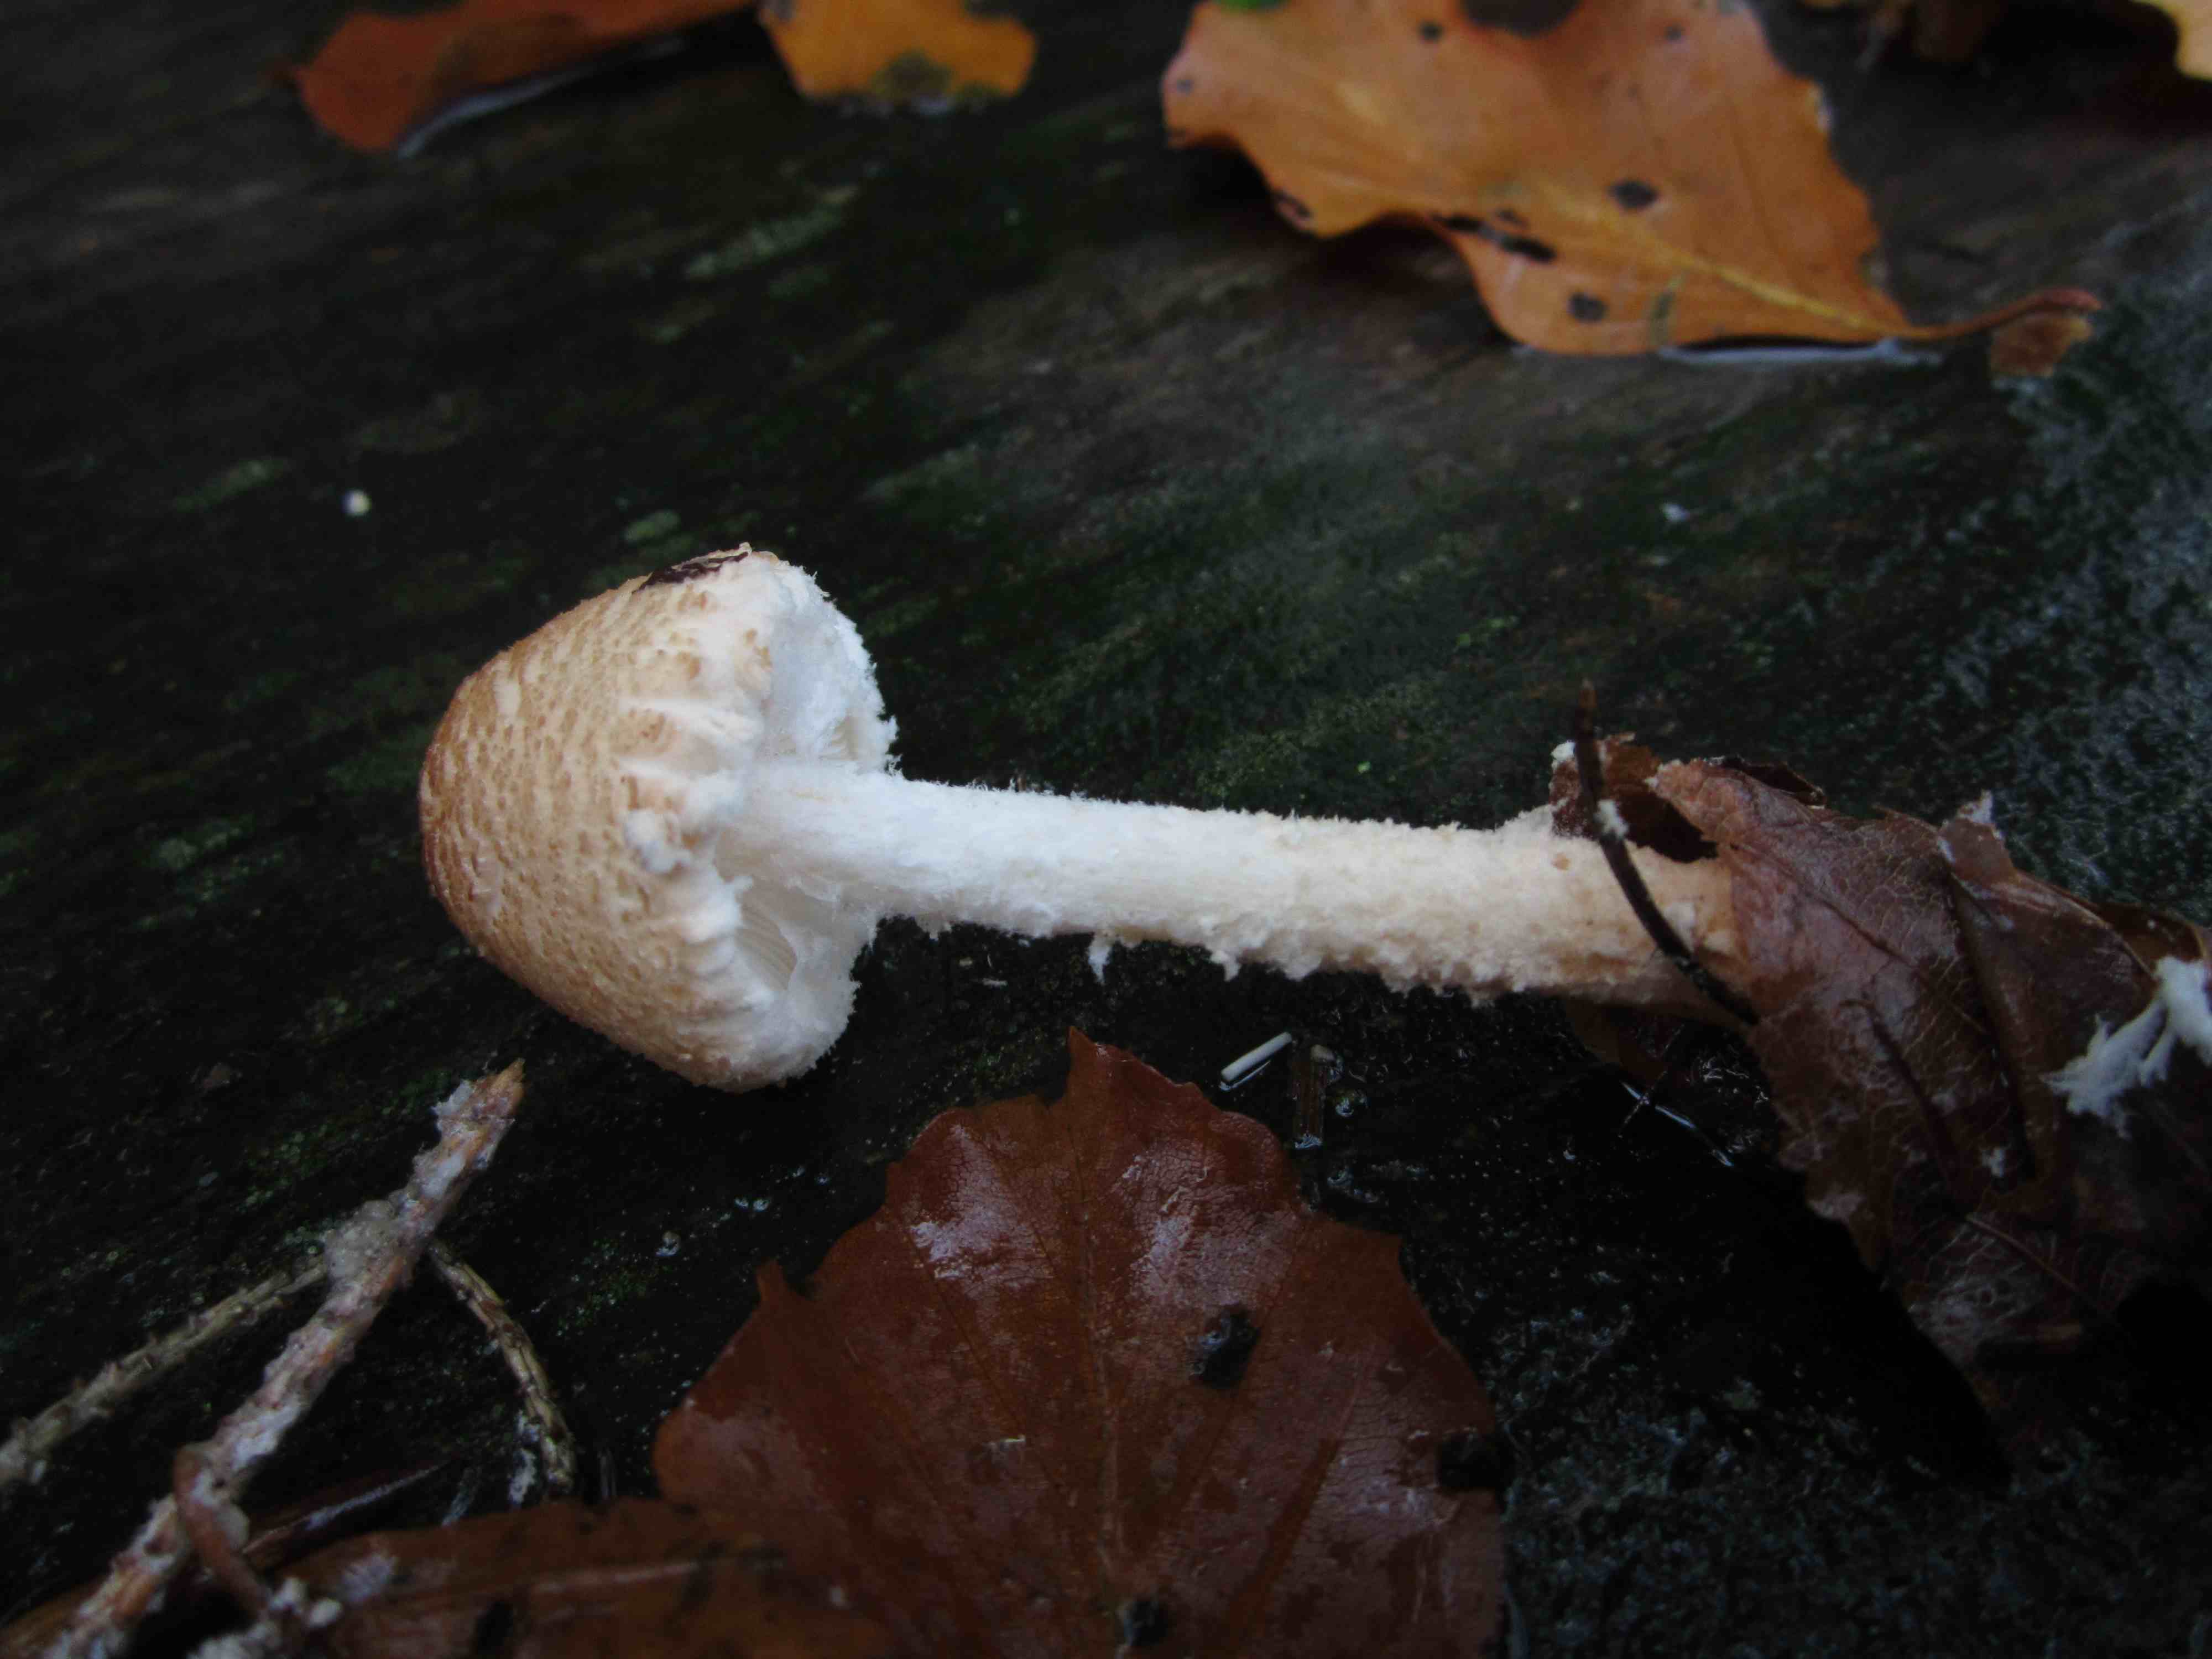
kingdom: Fungi
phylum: Basidiomycota
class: Agaricomycetes
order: Agaricales
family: Agaricaceae
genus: Lepiota
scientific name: Lepiota magnispora
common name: gulfnugget parasolhat
